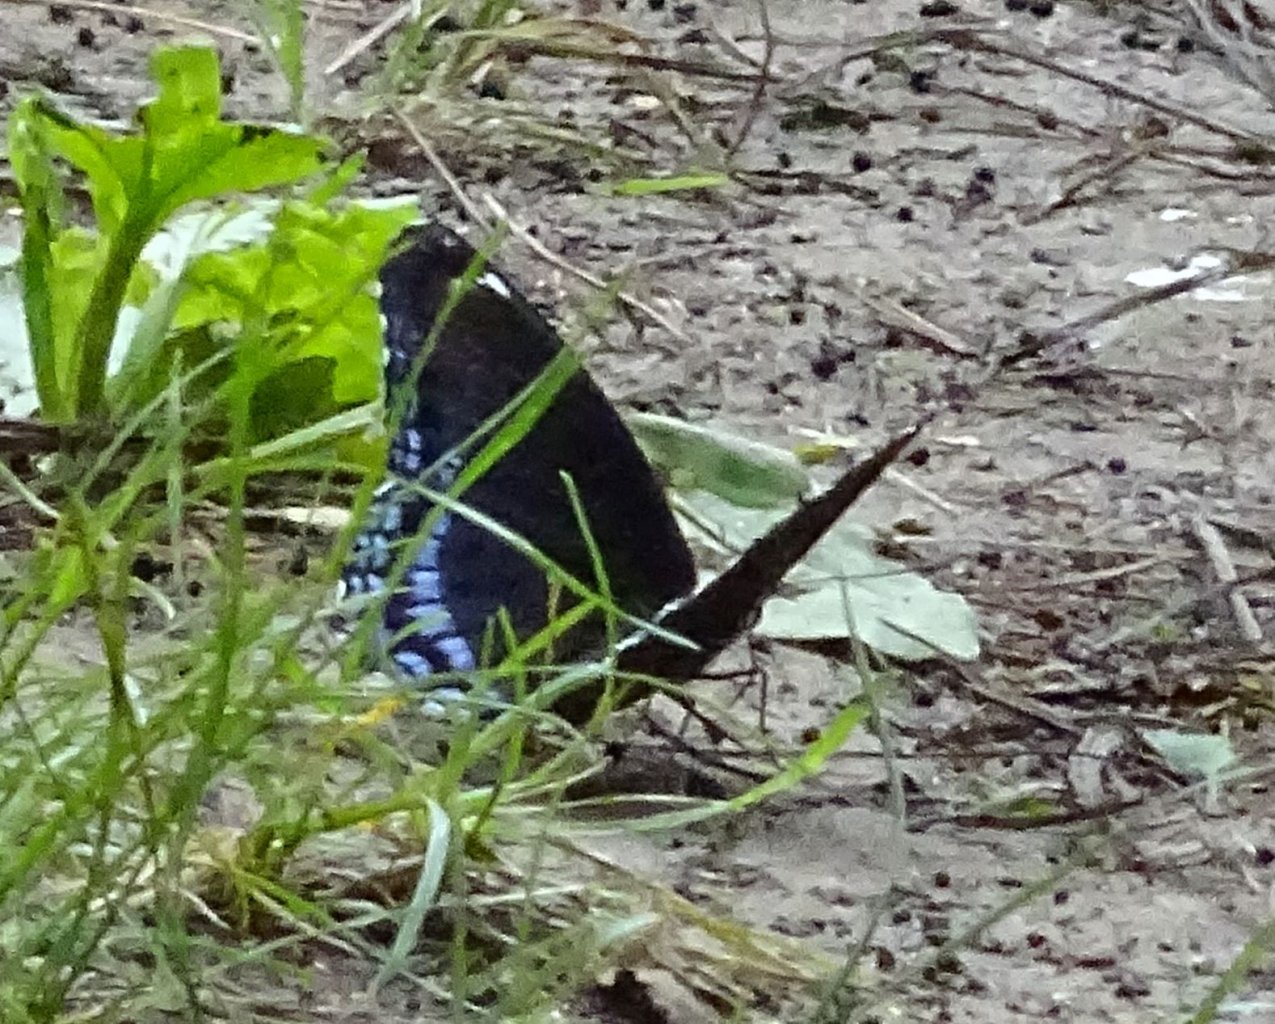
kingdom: Animalia
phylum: Arthropoda
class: Insecta
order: Lepidoptera
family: Nymphalidae
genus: Limenitis
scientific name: Limenitis astyanax
